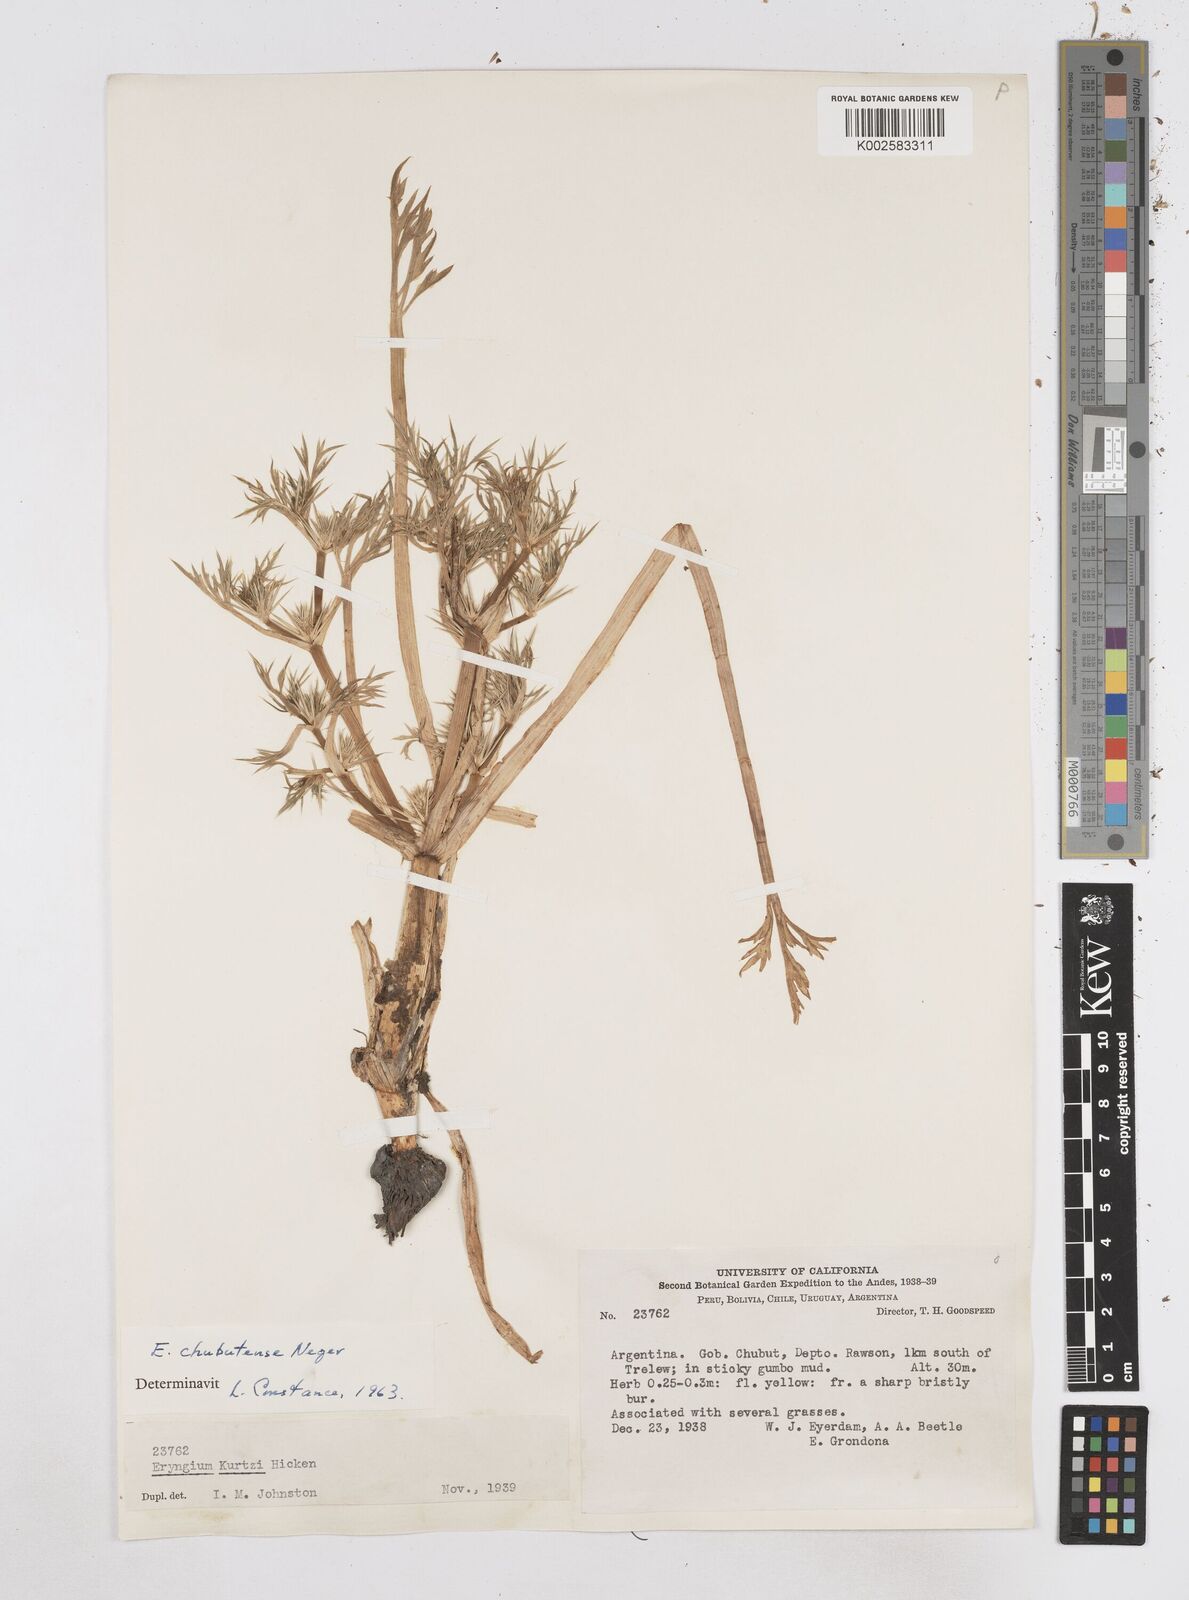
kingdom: Plantae
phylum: Tracheophyta
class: Magnoliopsida
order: Apiales
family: Apiaceae
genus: Eryngium
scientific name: Eryngium chubutense
